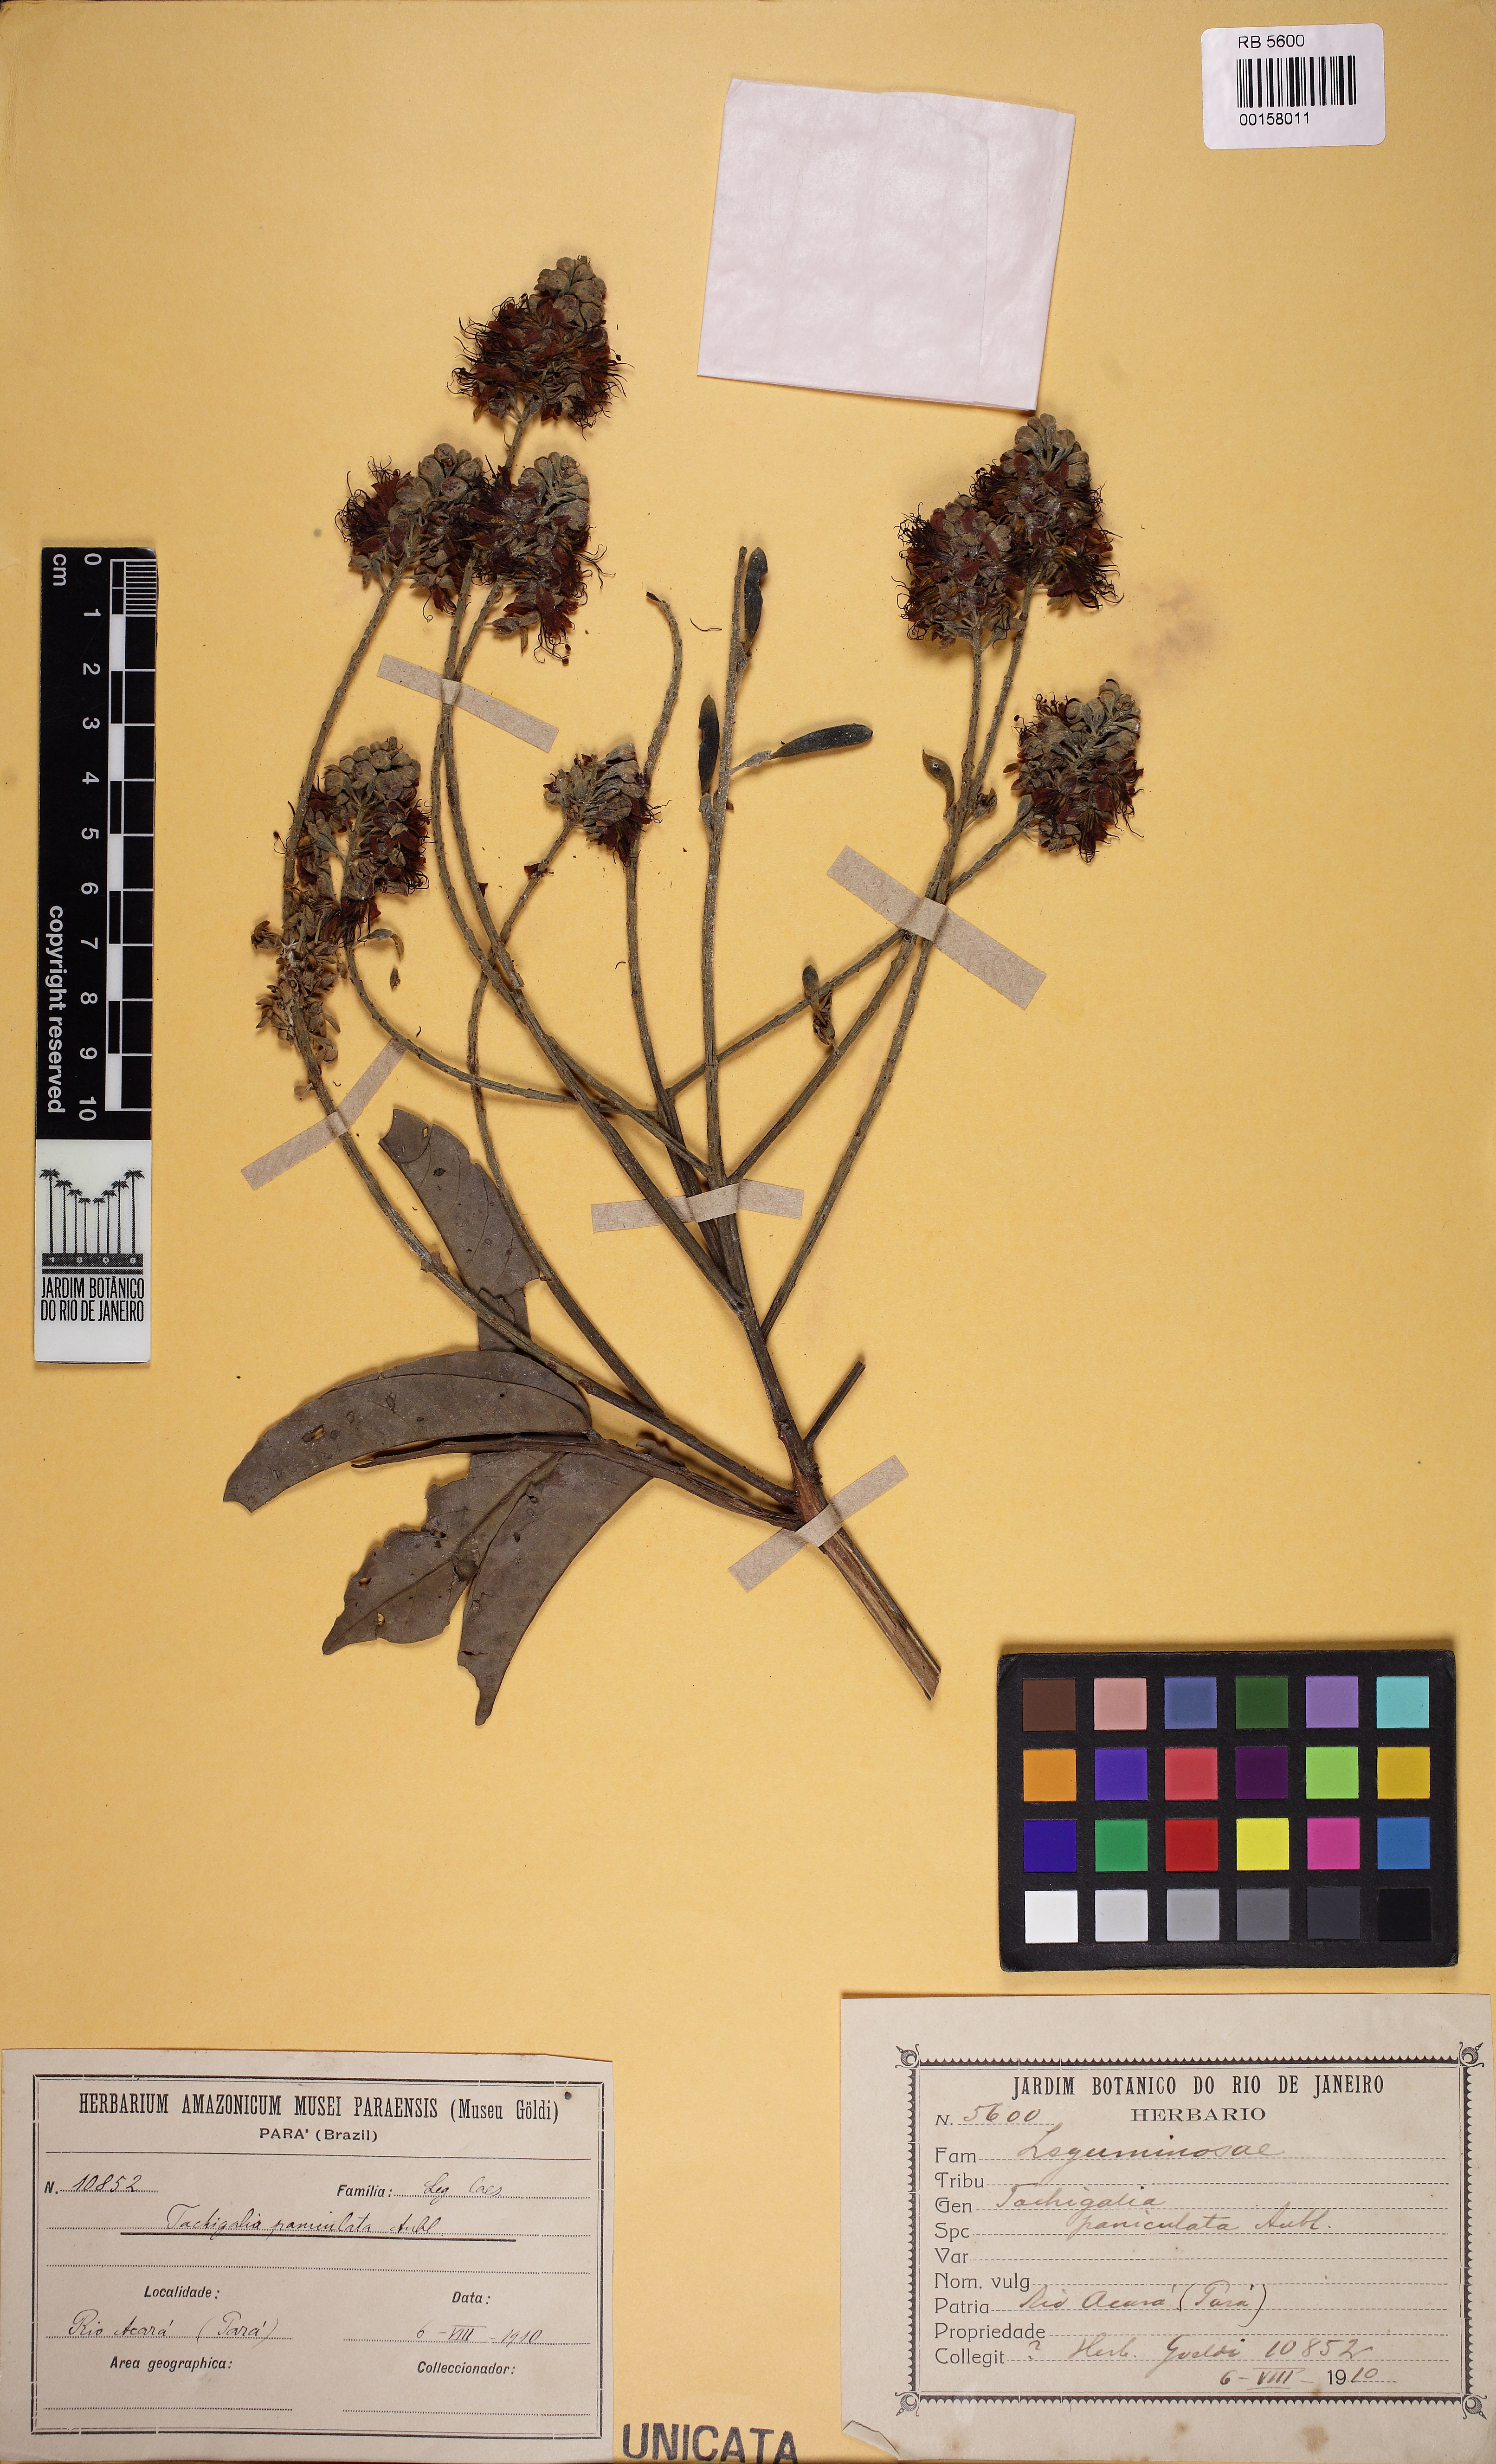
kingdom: Plantae
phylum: Tracheophyta
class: Magnoliopsida
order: Fabales
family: Fabaceae
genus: Tachigali
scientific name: Tachigali paniculata
